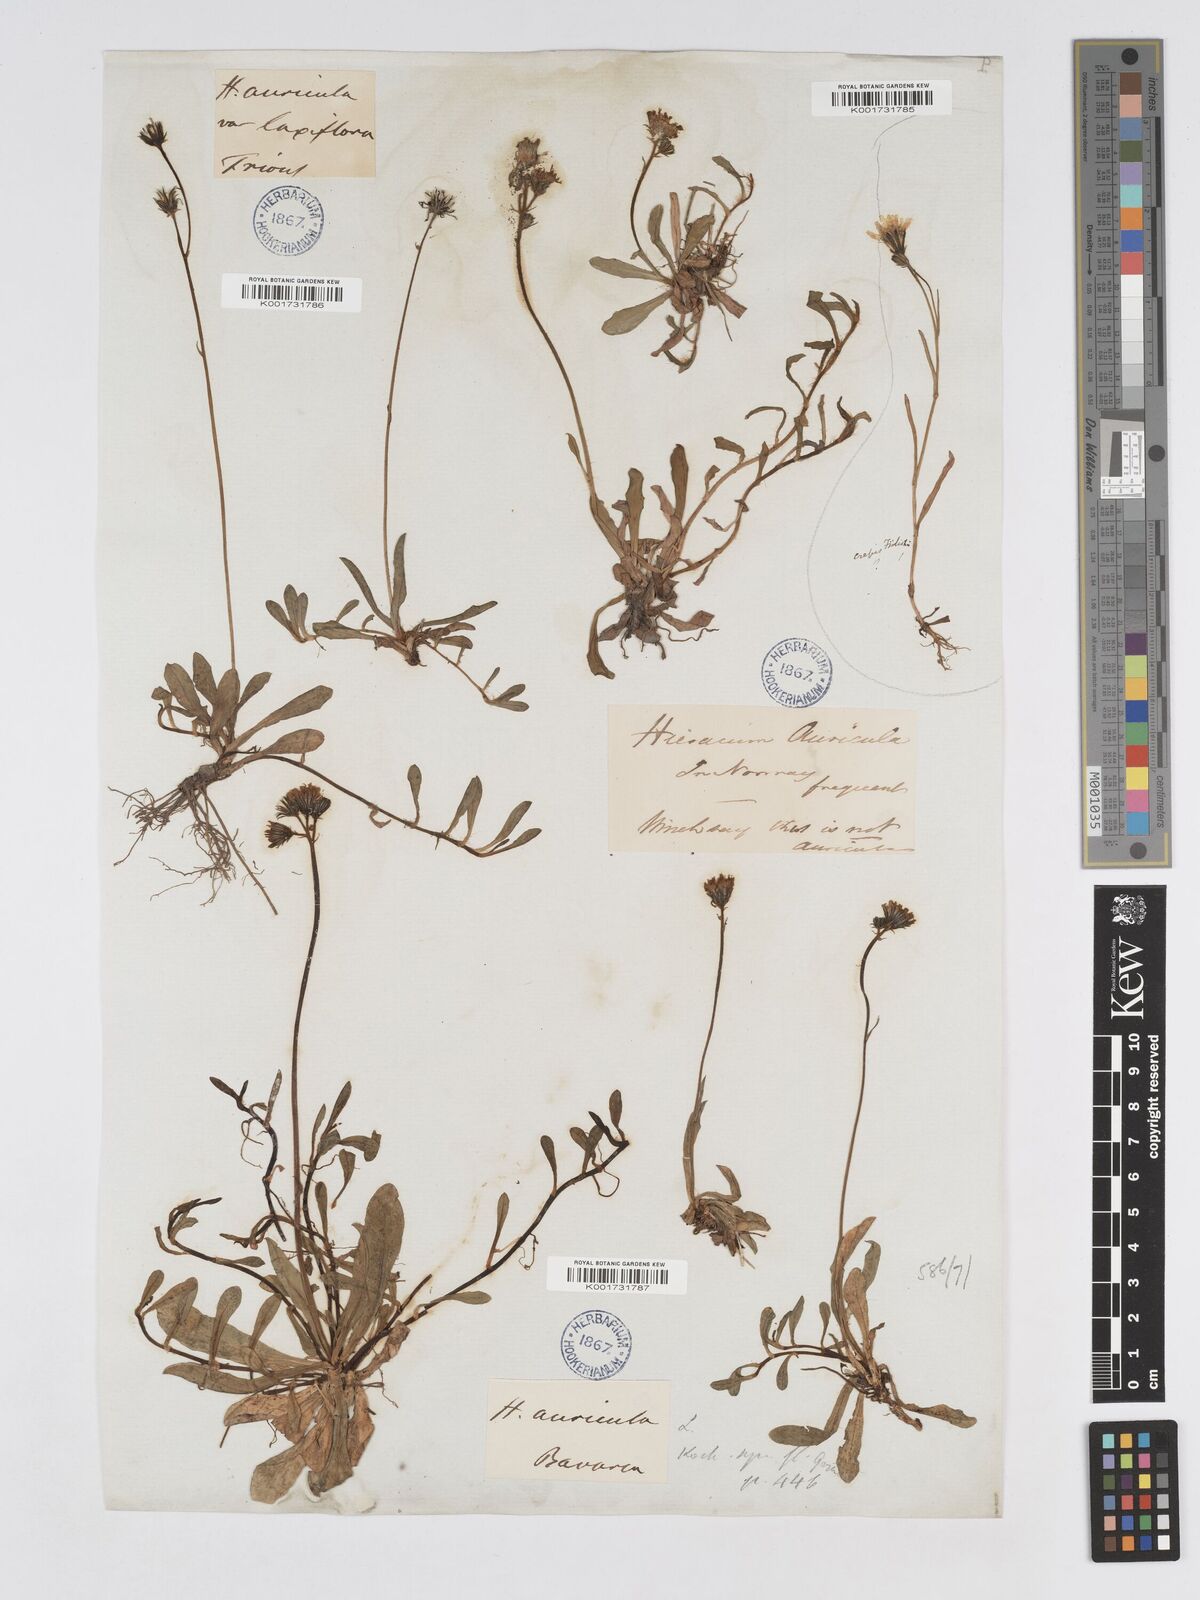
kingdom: Plantae
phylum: Tracheophyta
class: Magnoliopsida
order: Asterales
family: Asteraceae
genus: Pilosella
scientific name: Pilosella floribunda
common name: Glaucous hawkweed
